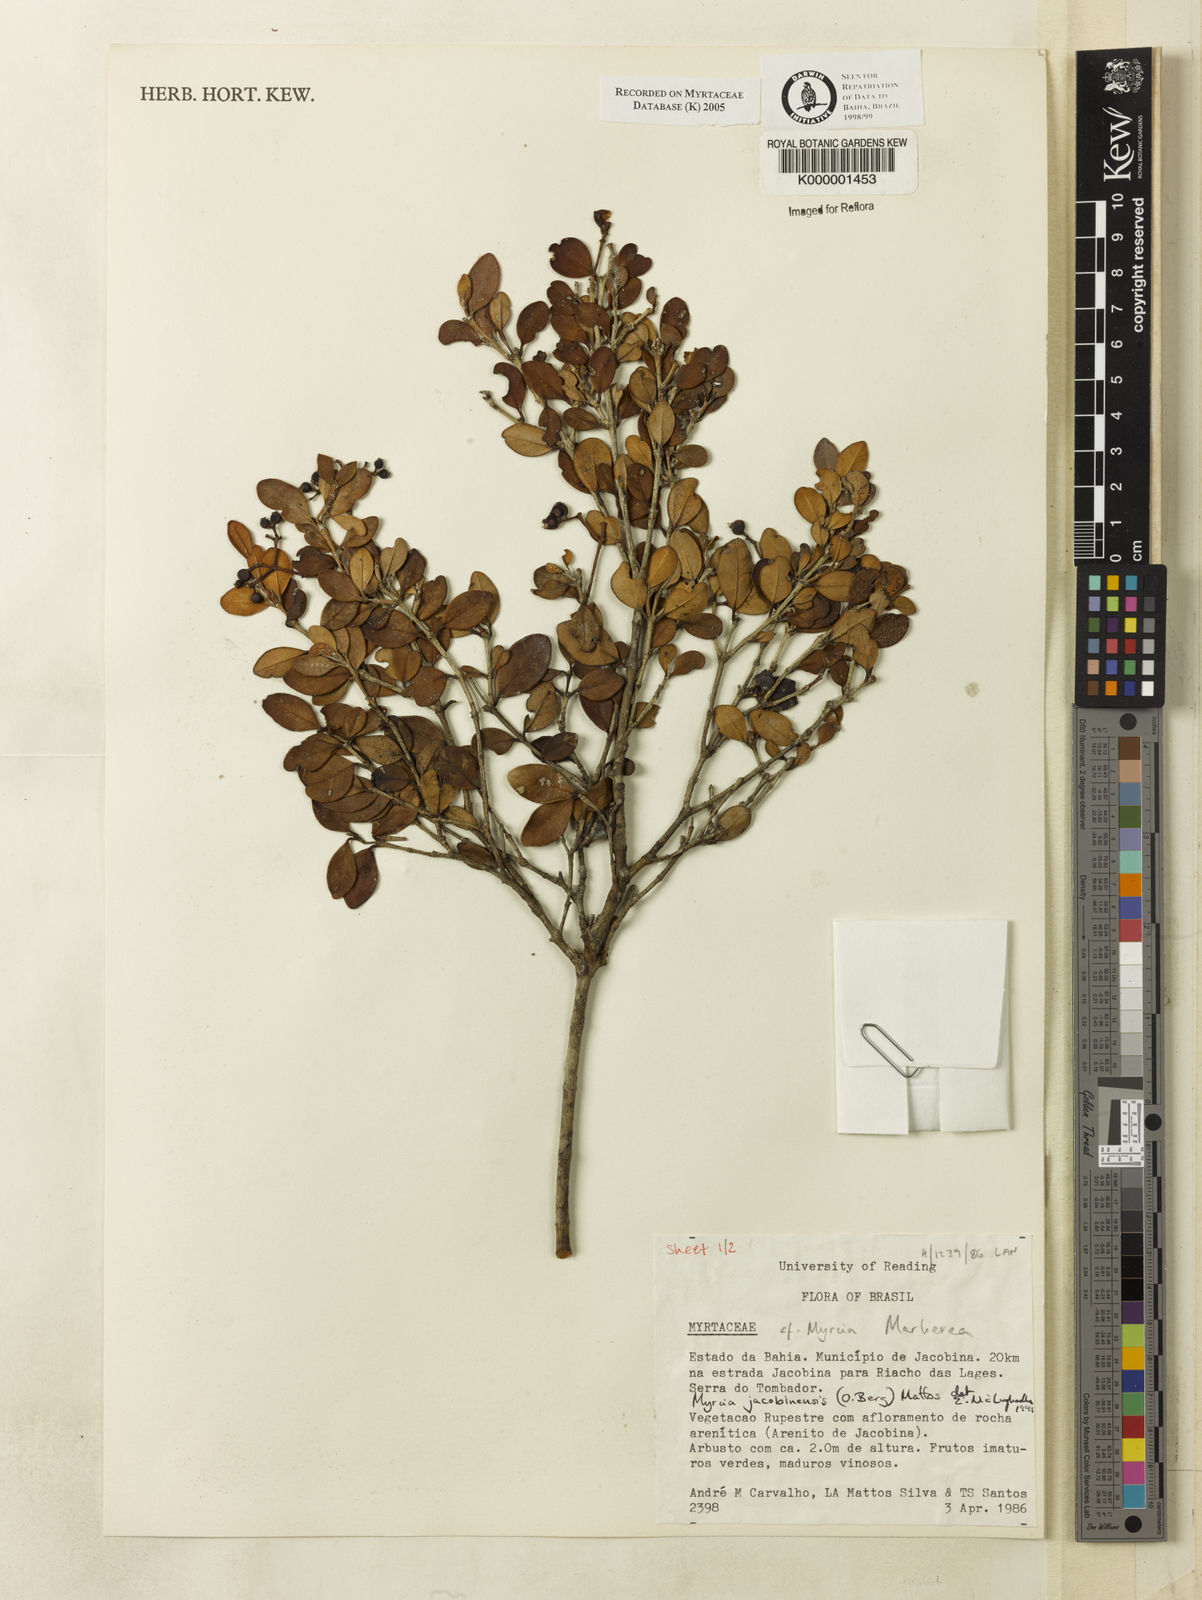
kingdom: Plantae
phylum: Tracheophyta
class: Magnoliopsida
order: Myrtales
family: Myrtaceae
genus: Myrcia
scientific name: Myrcia jacobinensis
